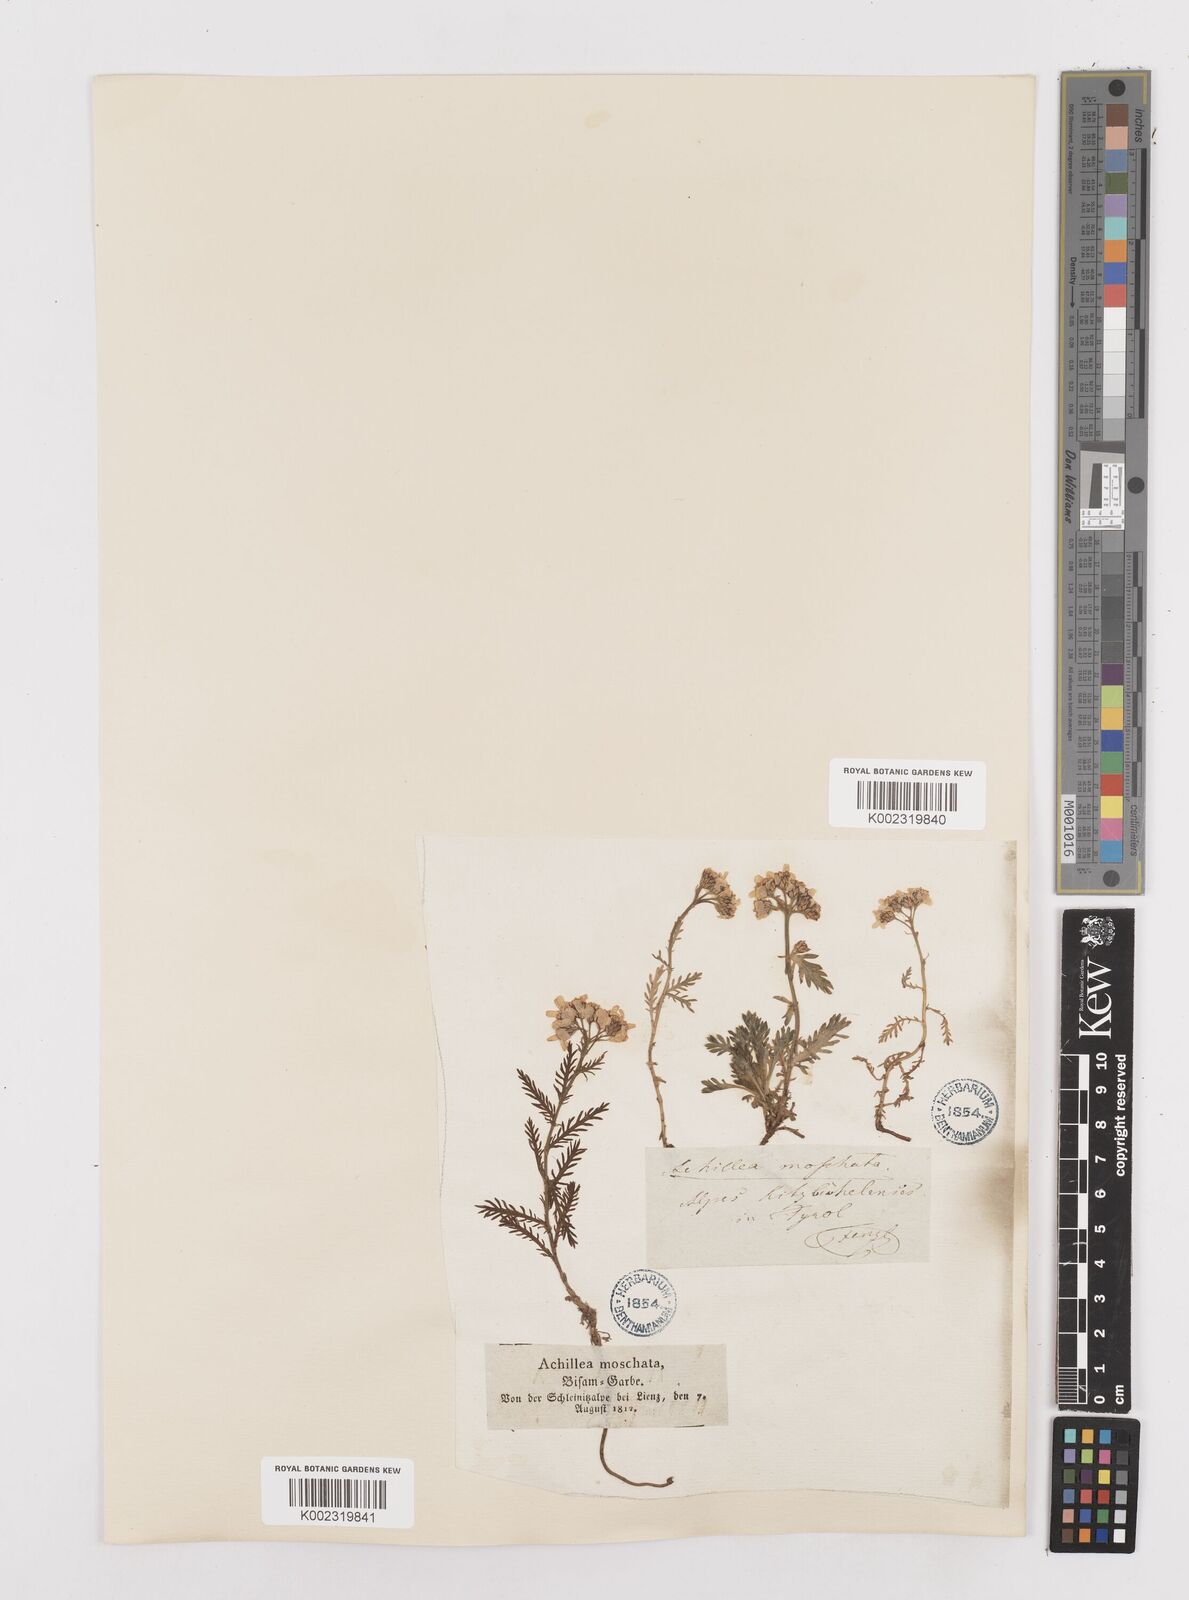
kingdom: Plantae
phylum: Tracheophyta
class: Magnoliopsida
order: Asterales
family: Asteraceae
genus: Achillea
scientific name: Achillea erba-rotta
